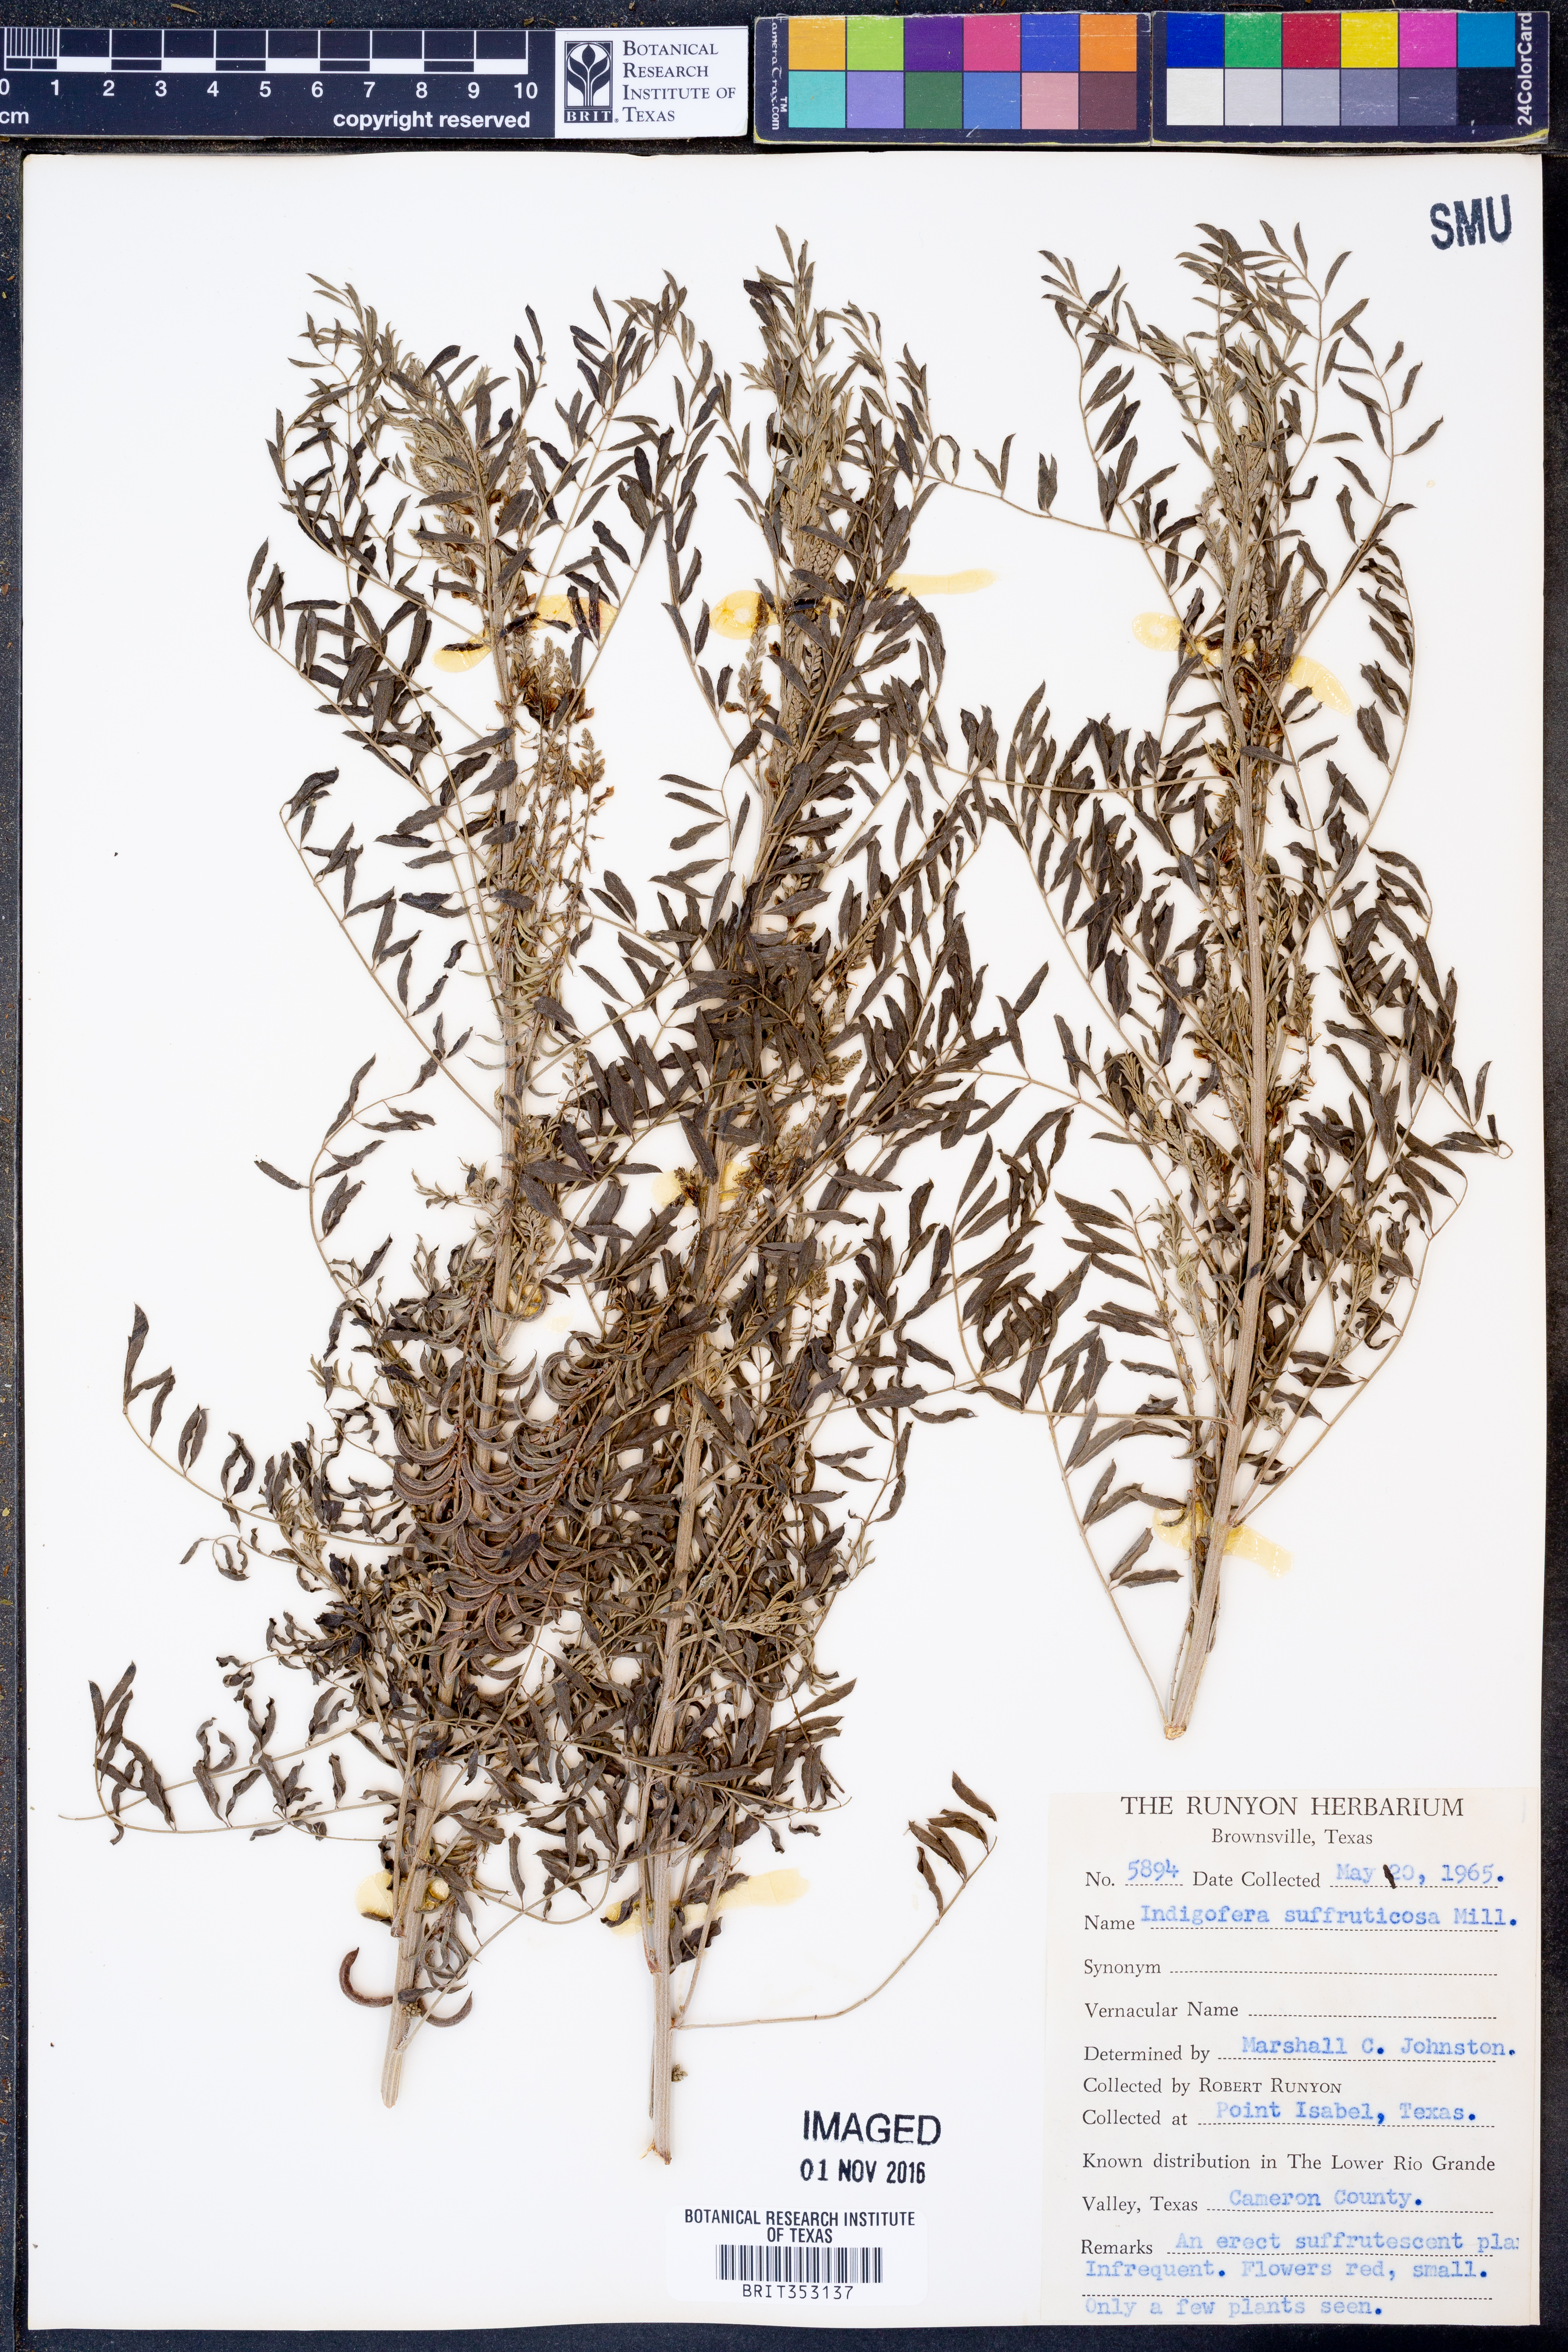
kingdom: Plantae
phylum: Tracheophyta
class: Magnoliopsida
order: Fabales
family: Fabaceae
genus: Indigofera
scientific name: Indigofera suffruticosa
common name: Anil de pasto
